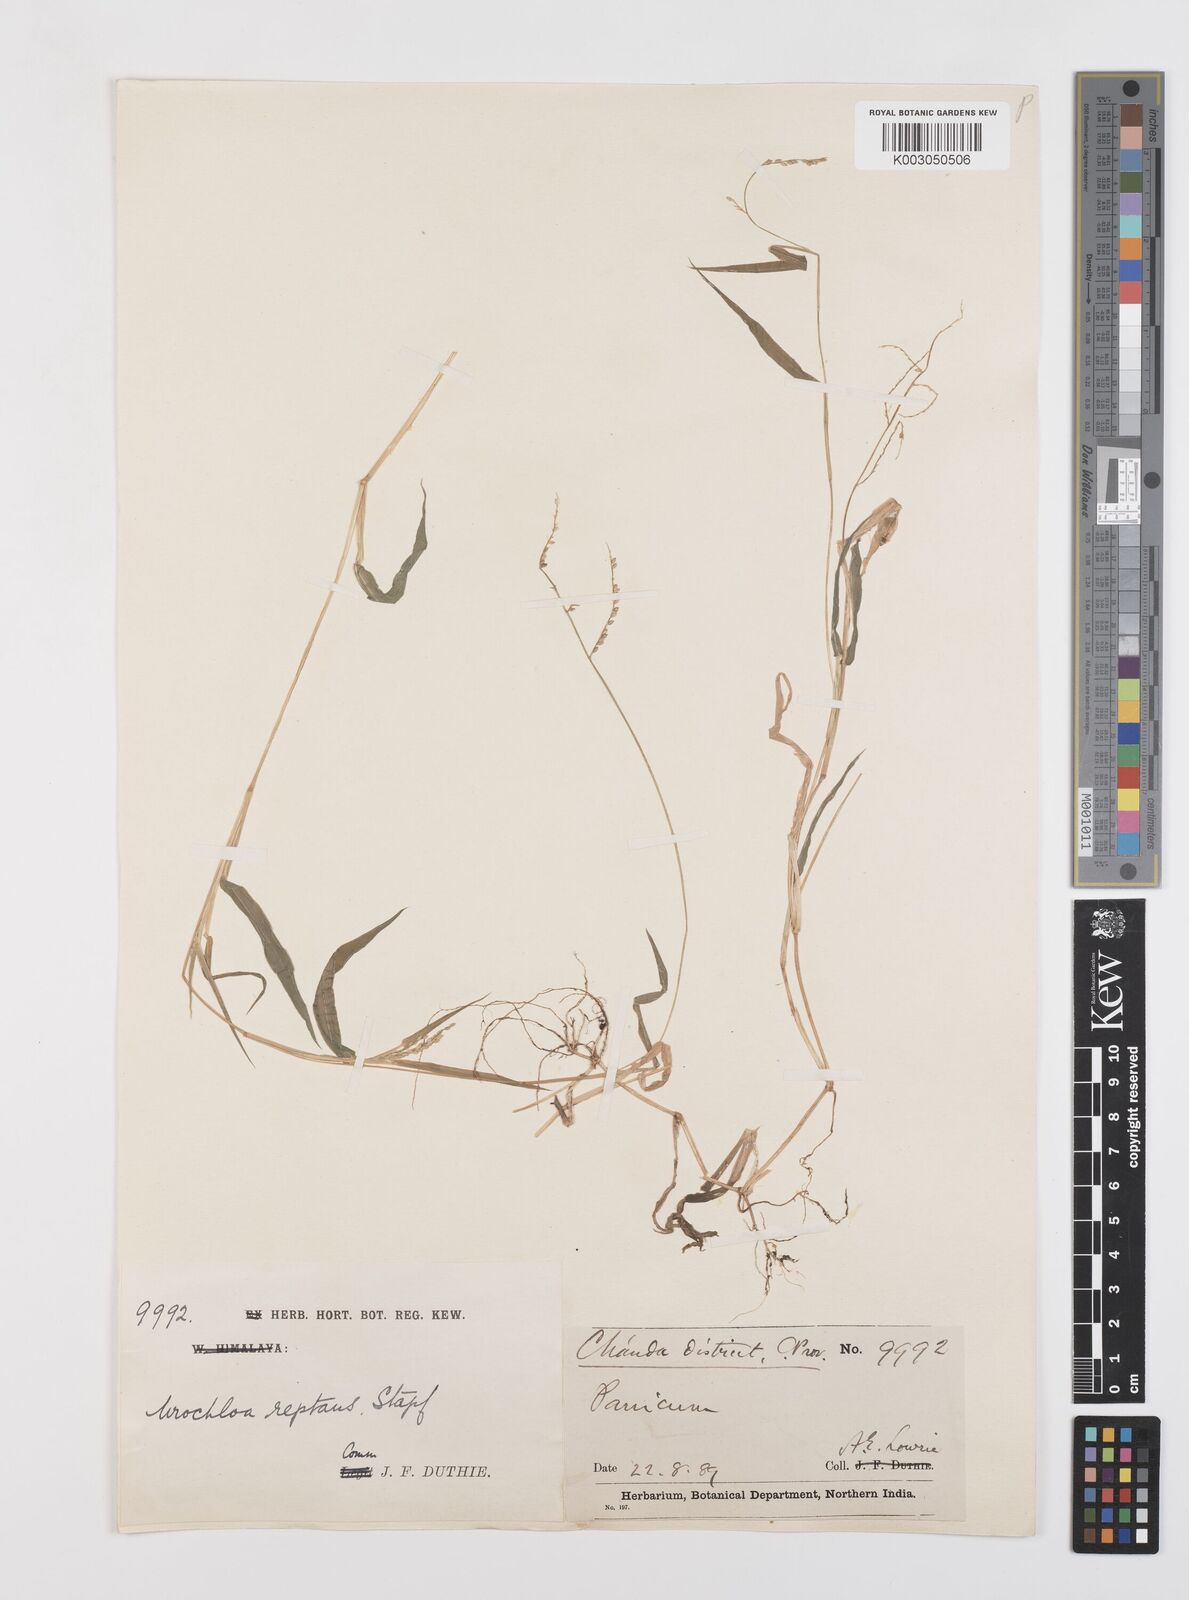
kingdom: Plantae
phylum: Tracheophyta
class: Liliopsida
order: Poales
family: Poaceae
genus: Urochloa
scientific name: Urochloa reptans
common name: Sprawling signalgrass
